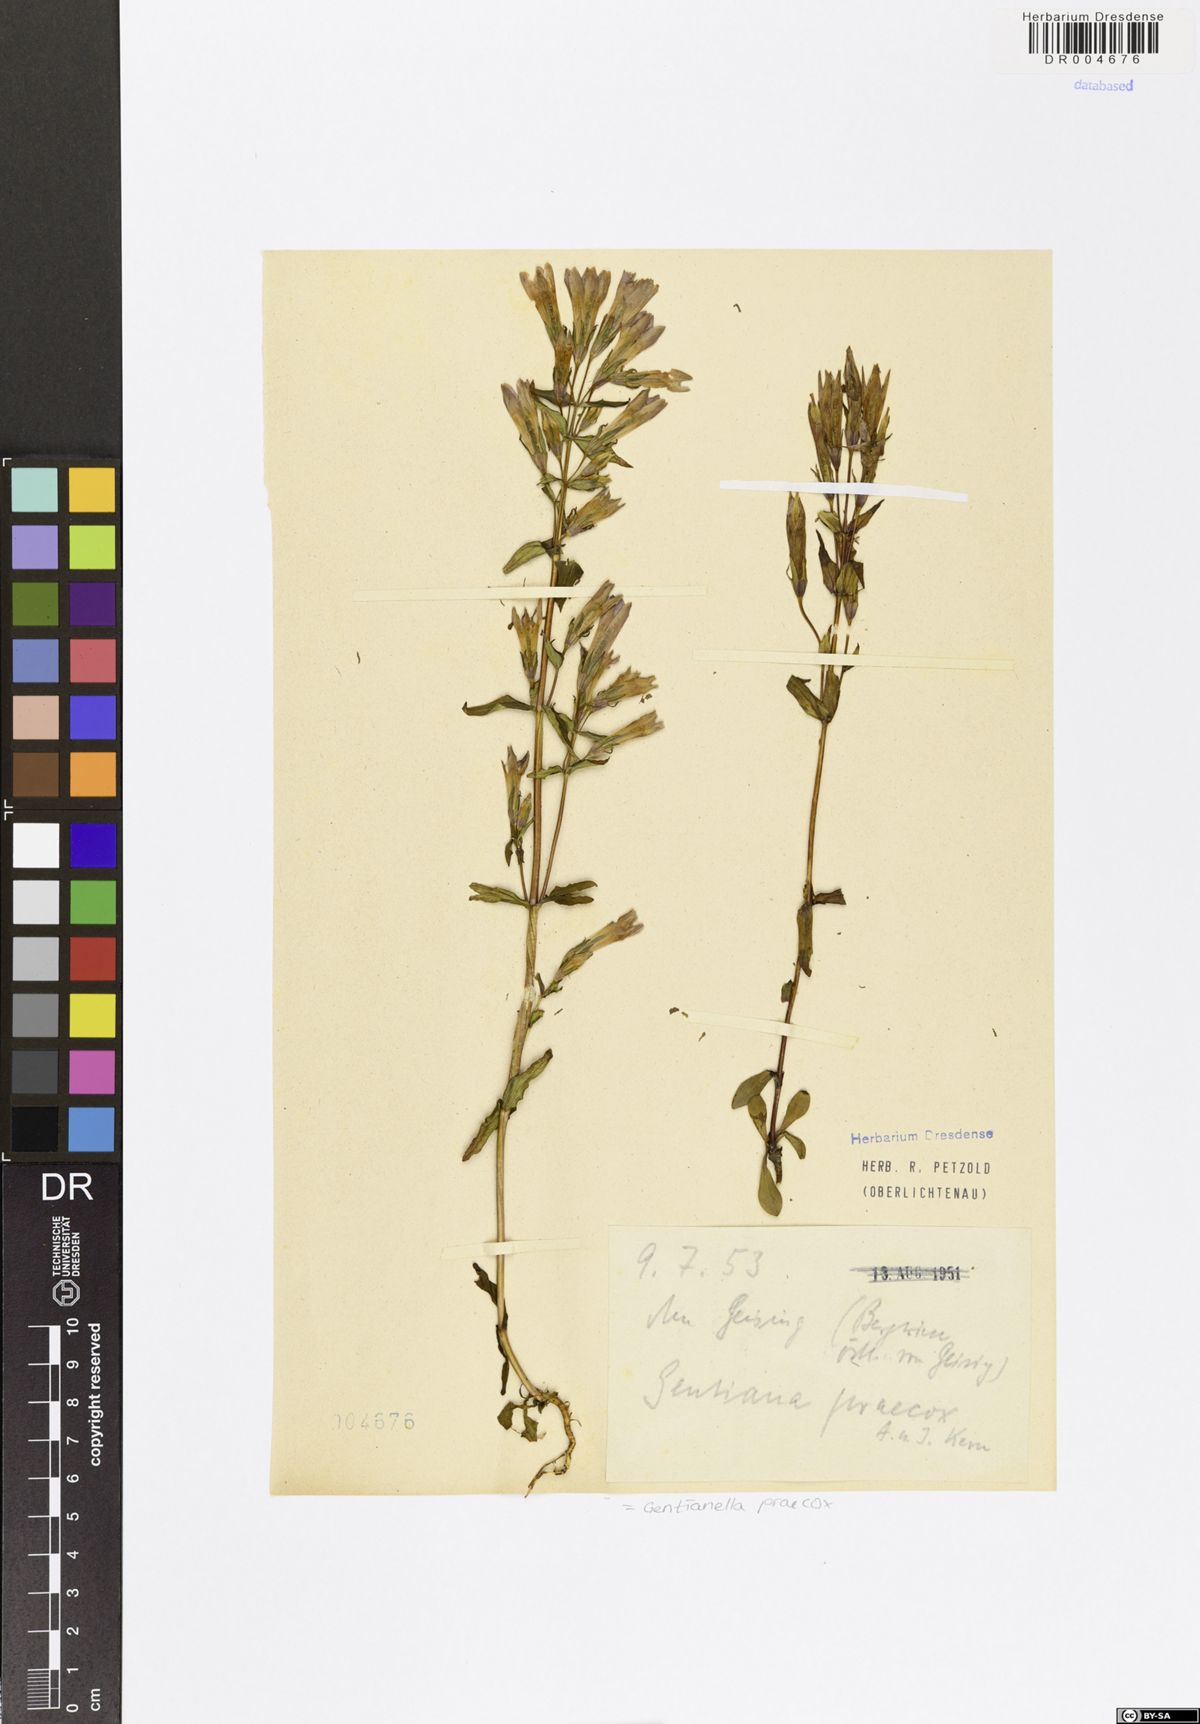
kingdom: Plantae
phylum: Tracheophyta
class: Magnoliopsida
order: Gentianales
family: Gentianaceae
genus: Gentianella
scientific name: Gentianella praecox
